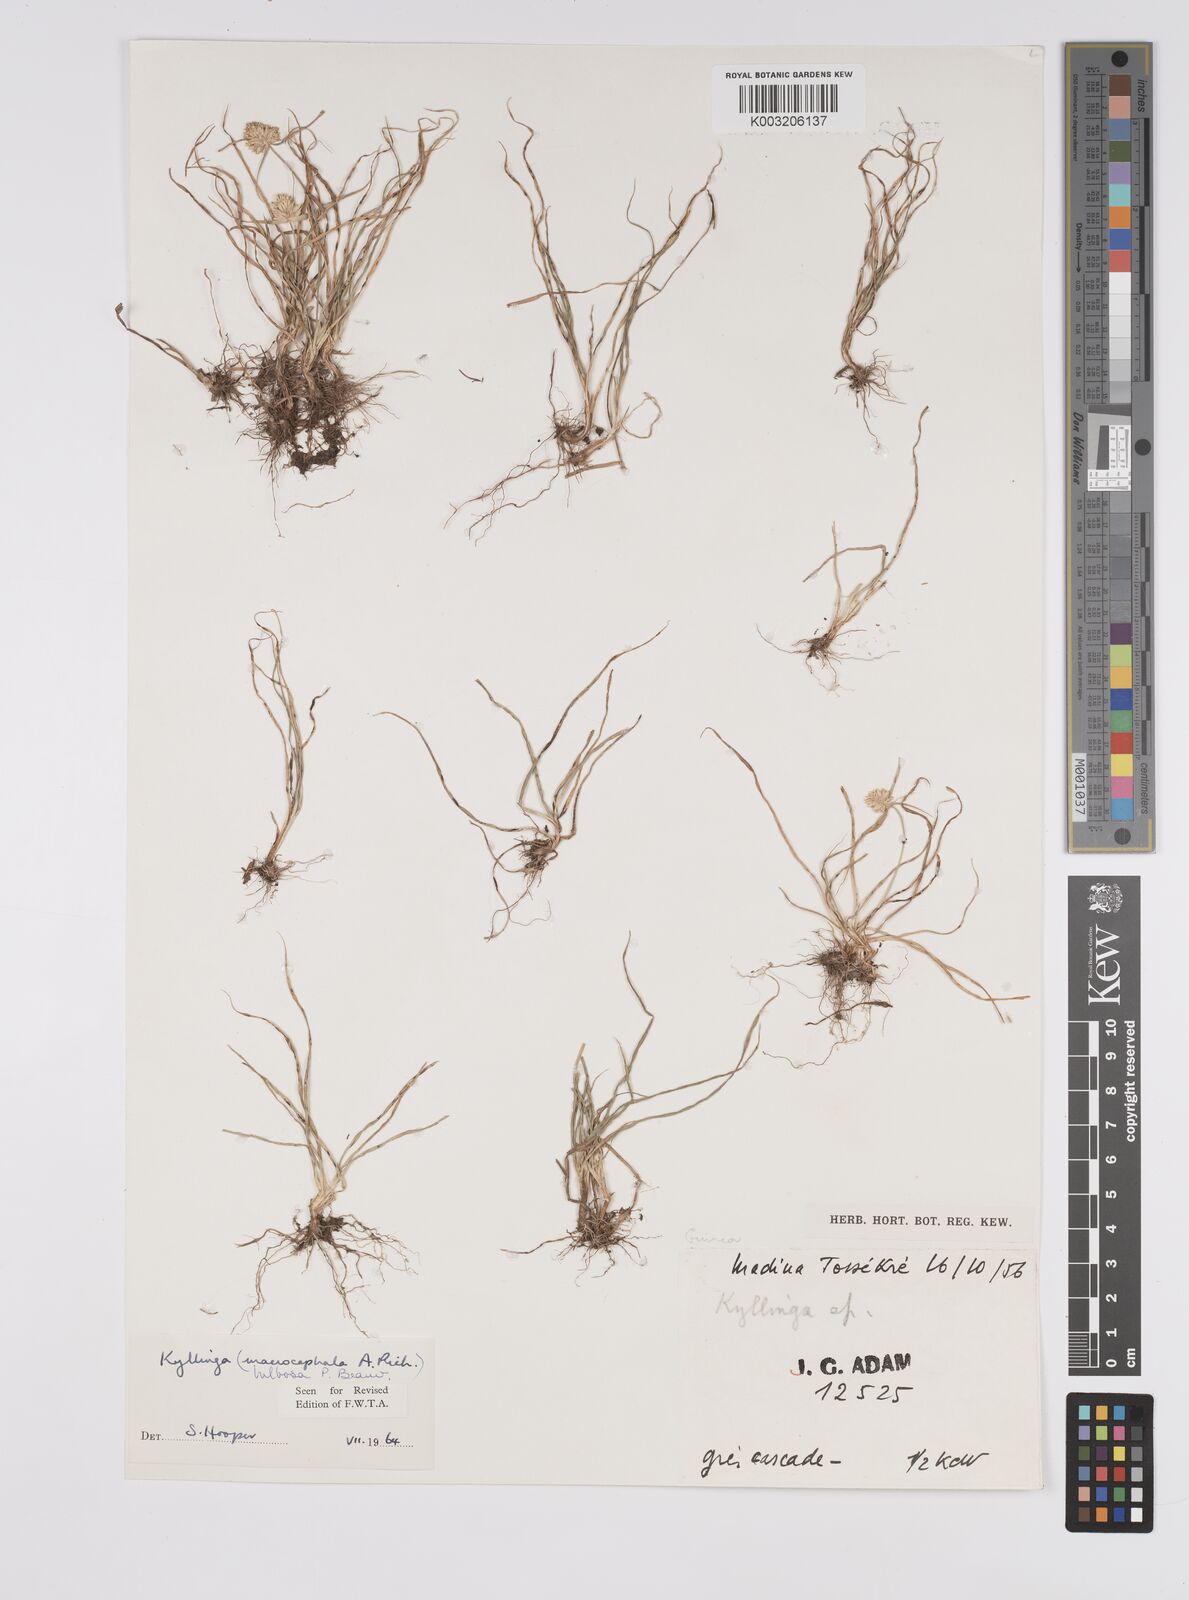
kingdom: Plantae
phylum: Tracheophyta
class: Liliopsida
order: Poales
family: Cyperaceae
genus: Cyperus
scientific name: Cyperus
